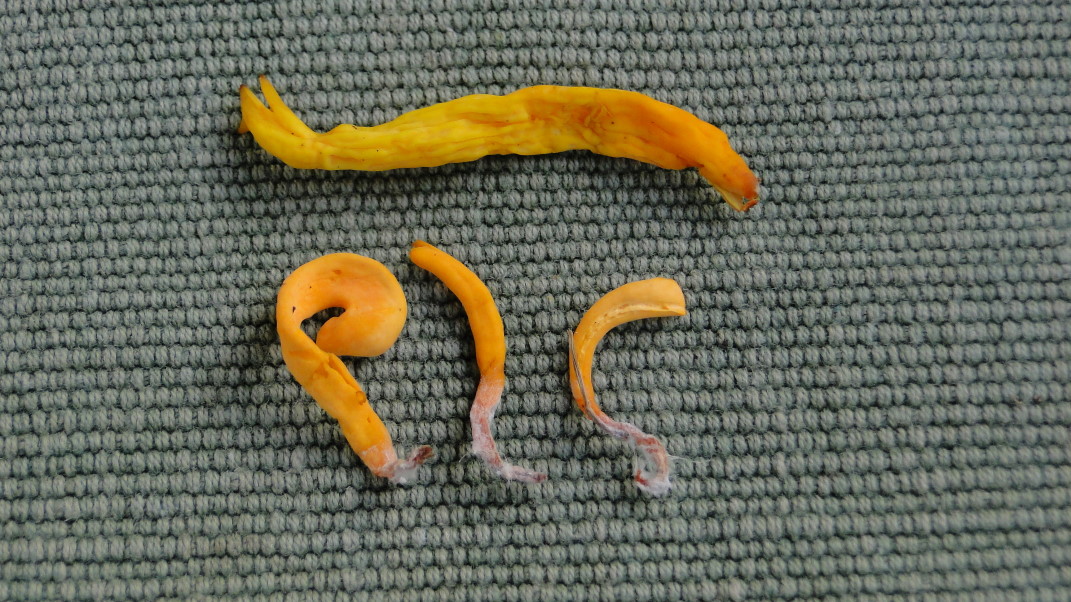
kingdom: Fungi
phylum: Basidiomycota
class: Agaricomycetes
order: Agaricales
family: Clavariaceae
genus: Clavulinopsis
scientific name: Clavulinopsis luteoalba
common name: abrikos-køllesvamp
